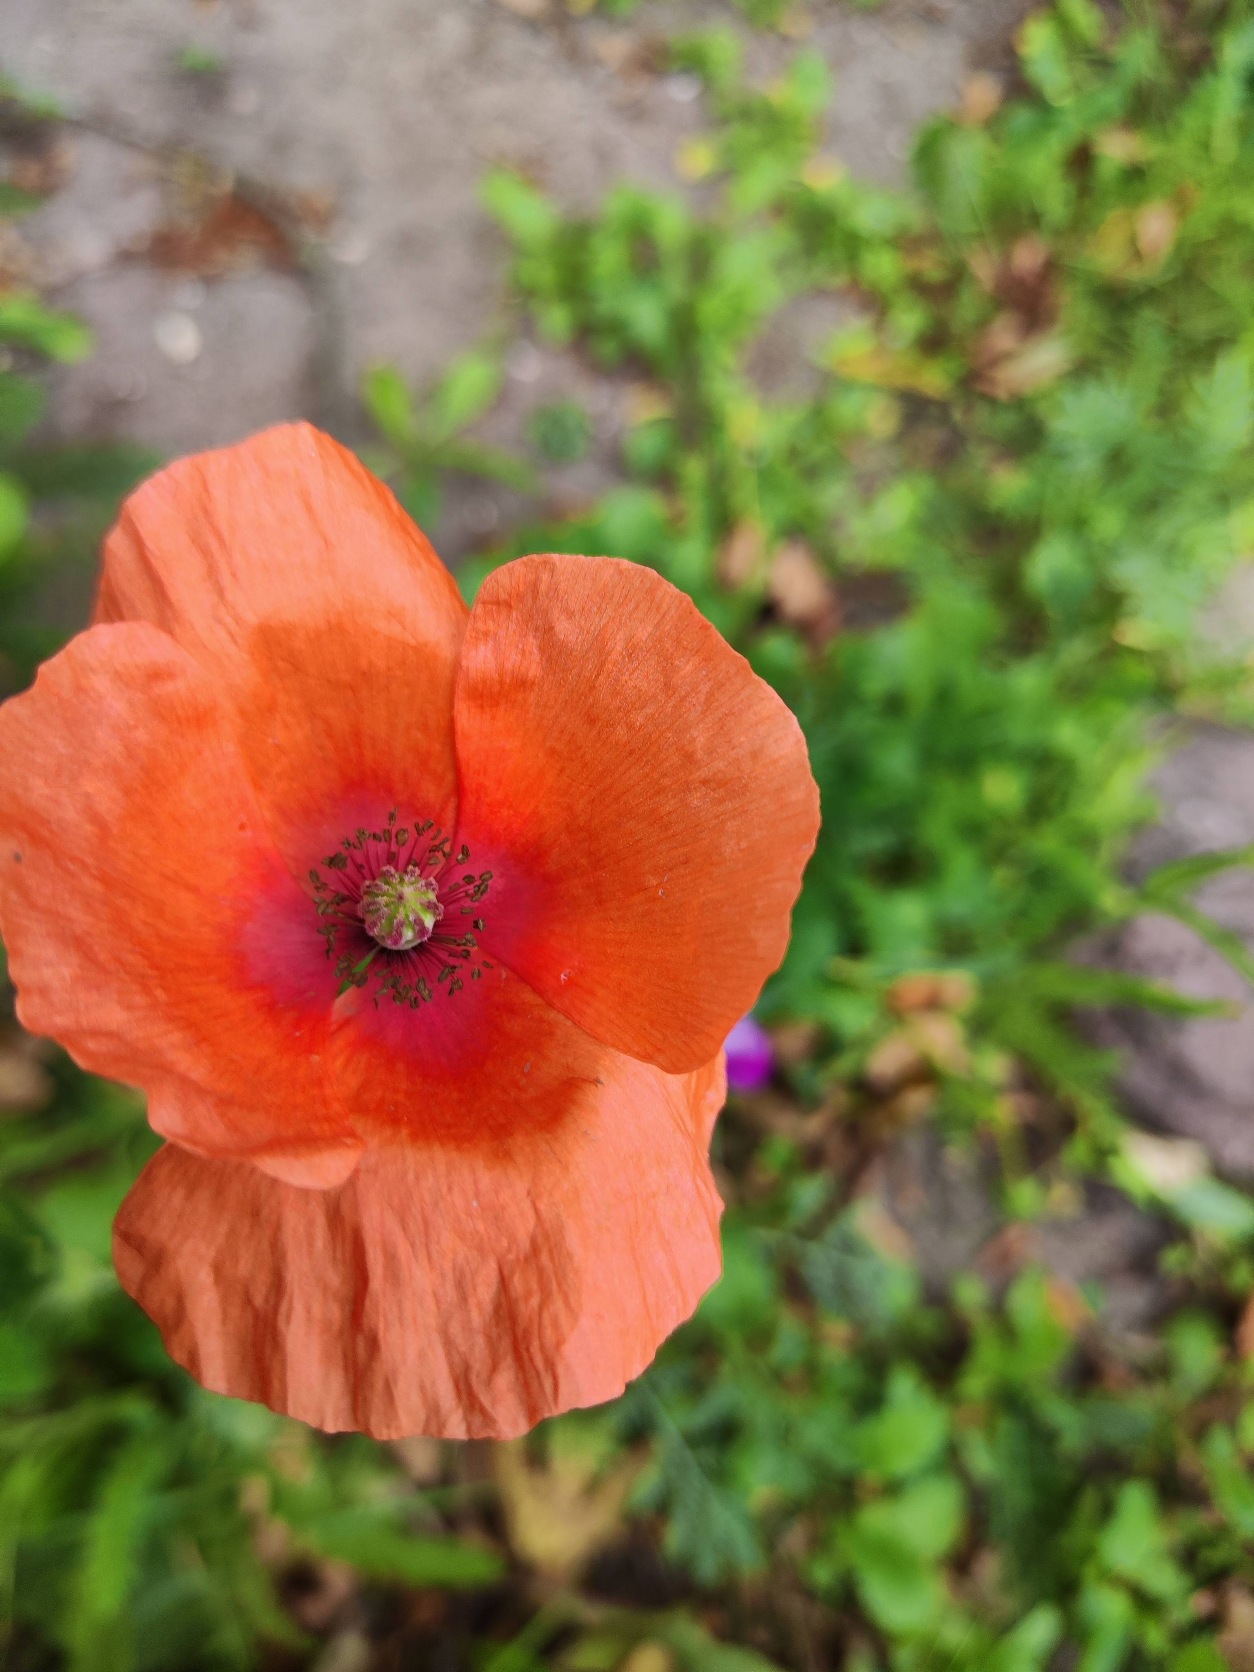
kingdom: Plantae
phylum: Tracheophyta
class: Magnoliopsida
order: Ranunculales
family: Papaveraceae
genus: Papaver
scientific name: Papaver rhoeas
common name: Korn-valmue
